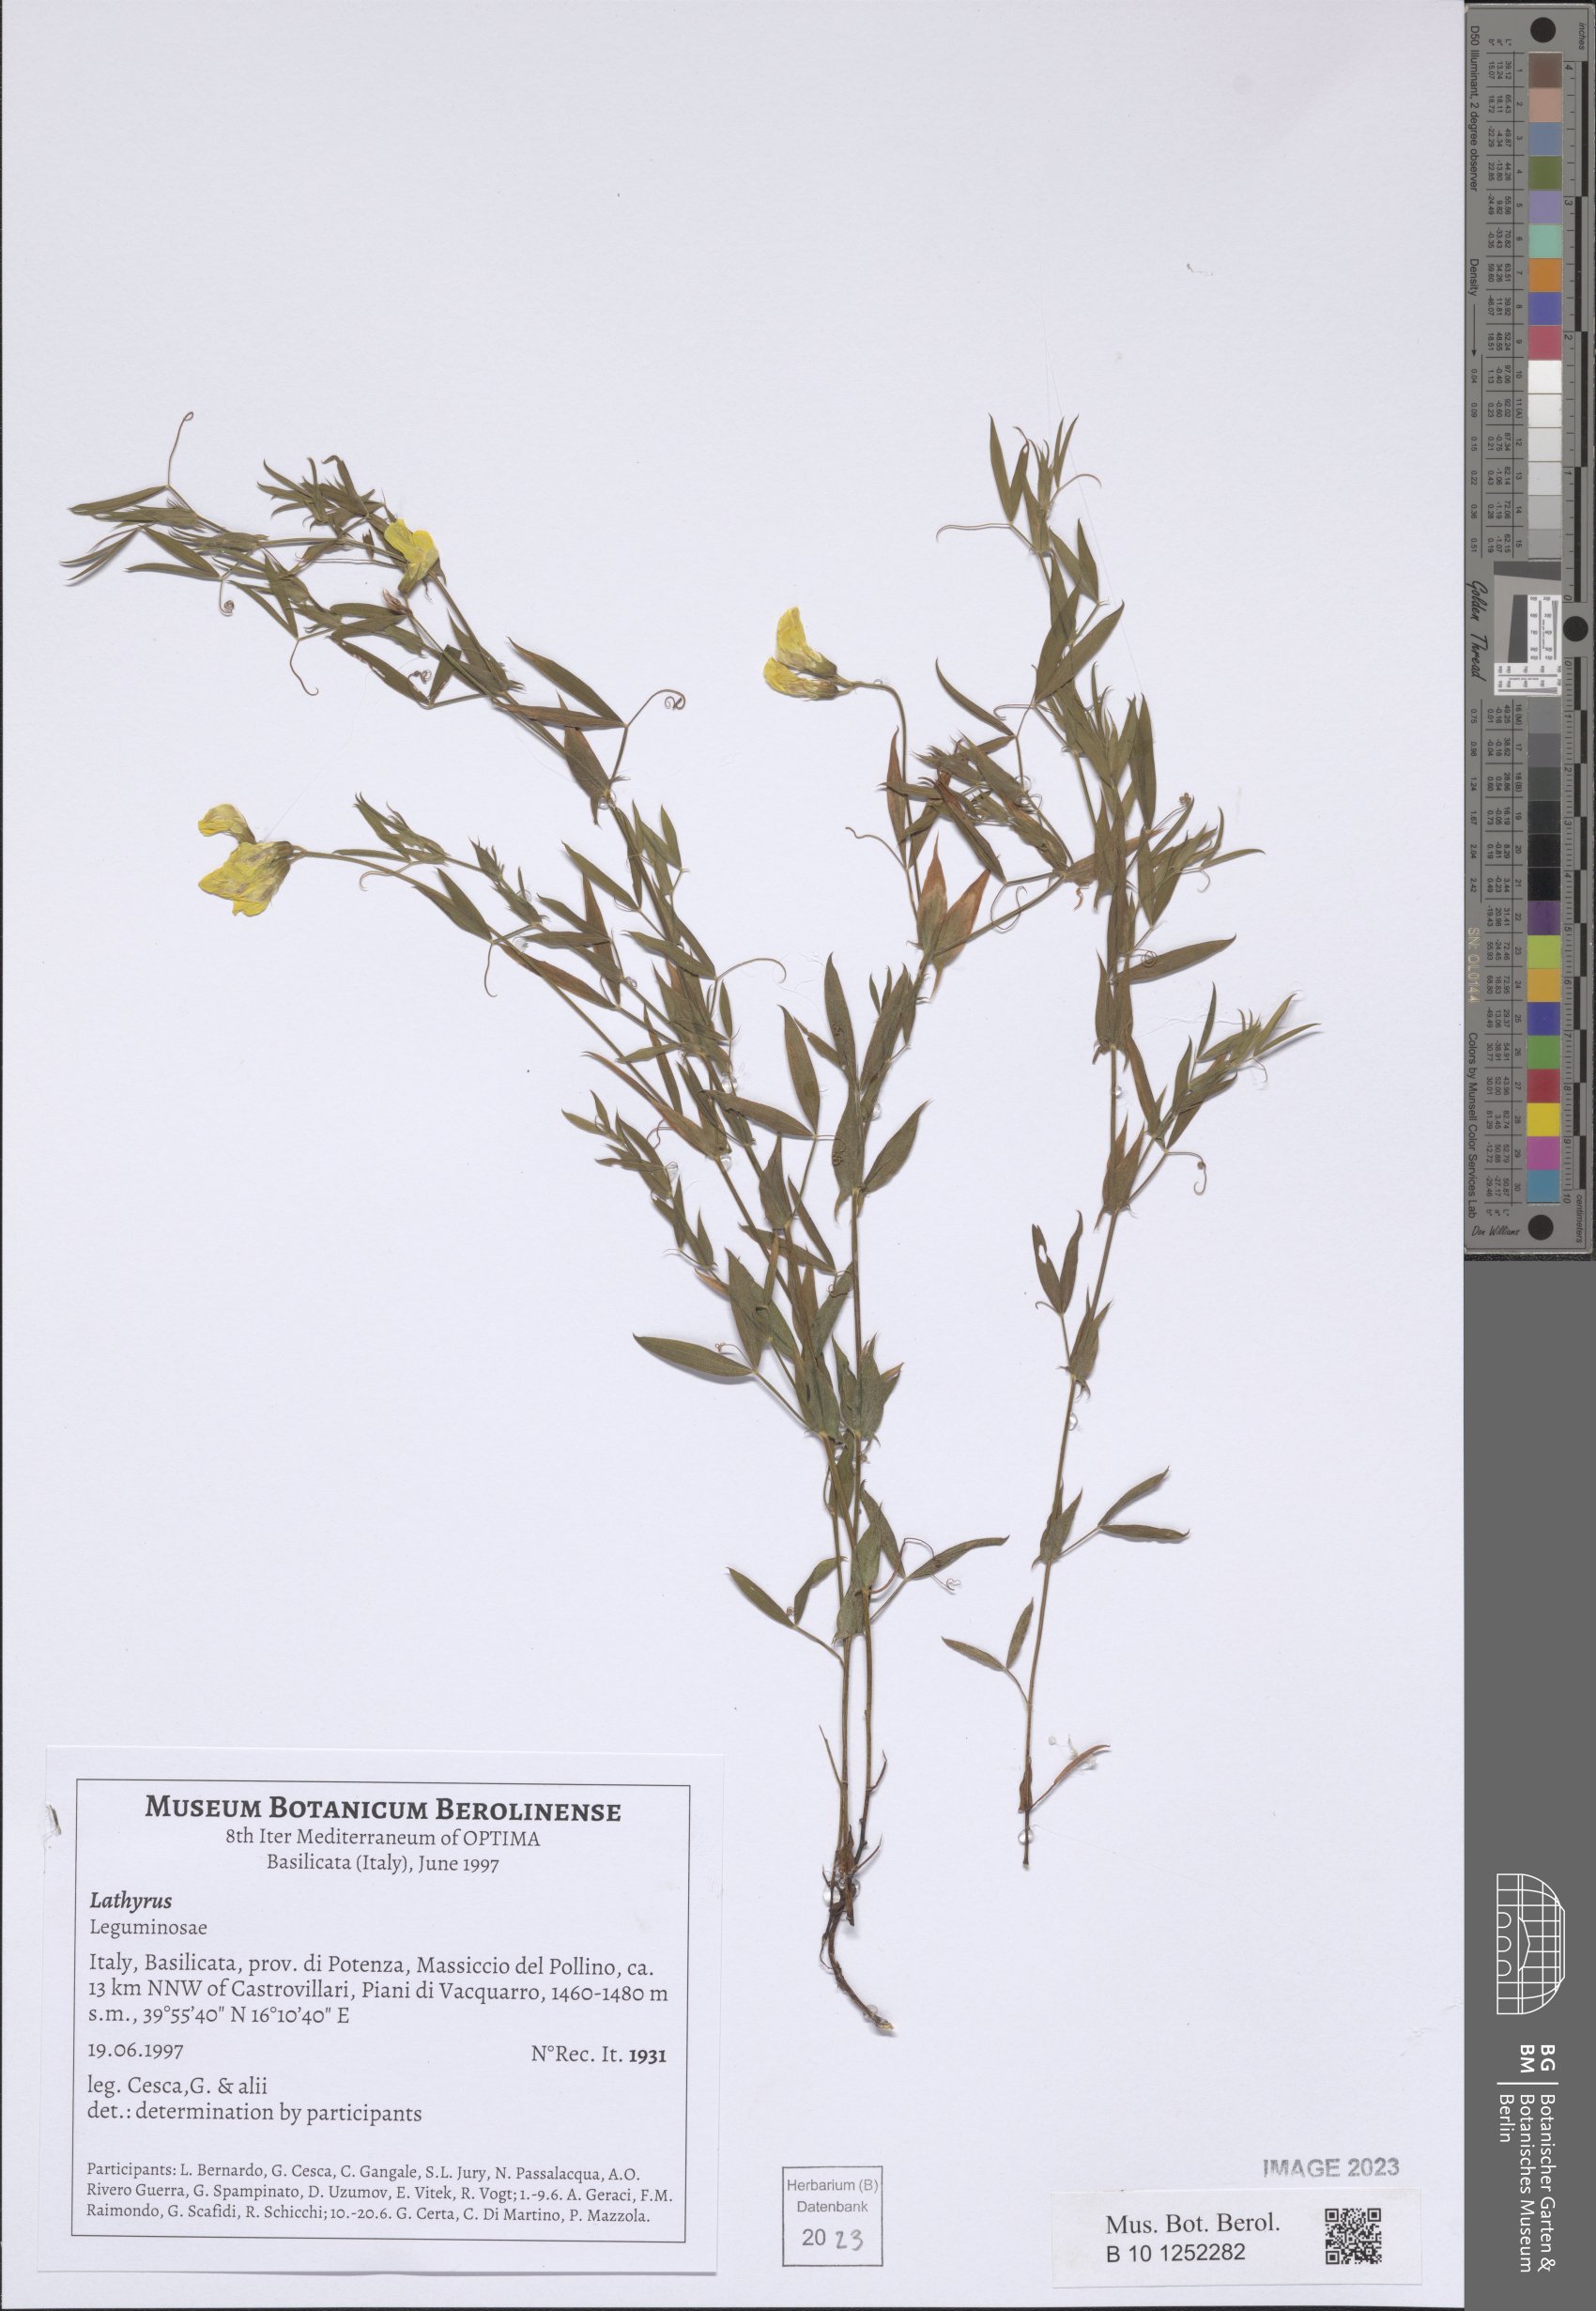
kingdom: Plantae
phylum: Tracheophyta
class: Magnoliopsida
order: Fabales
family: Fabaceae
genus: Lathyrus
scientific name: Lathyrus
